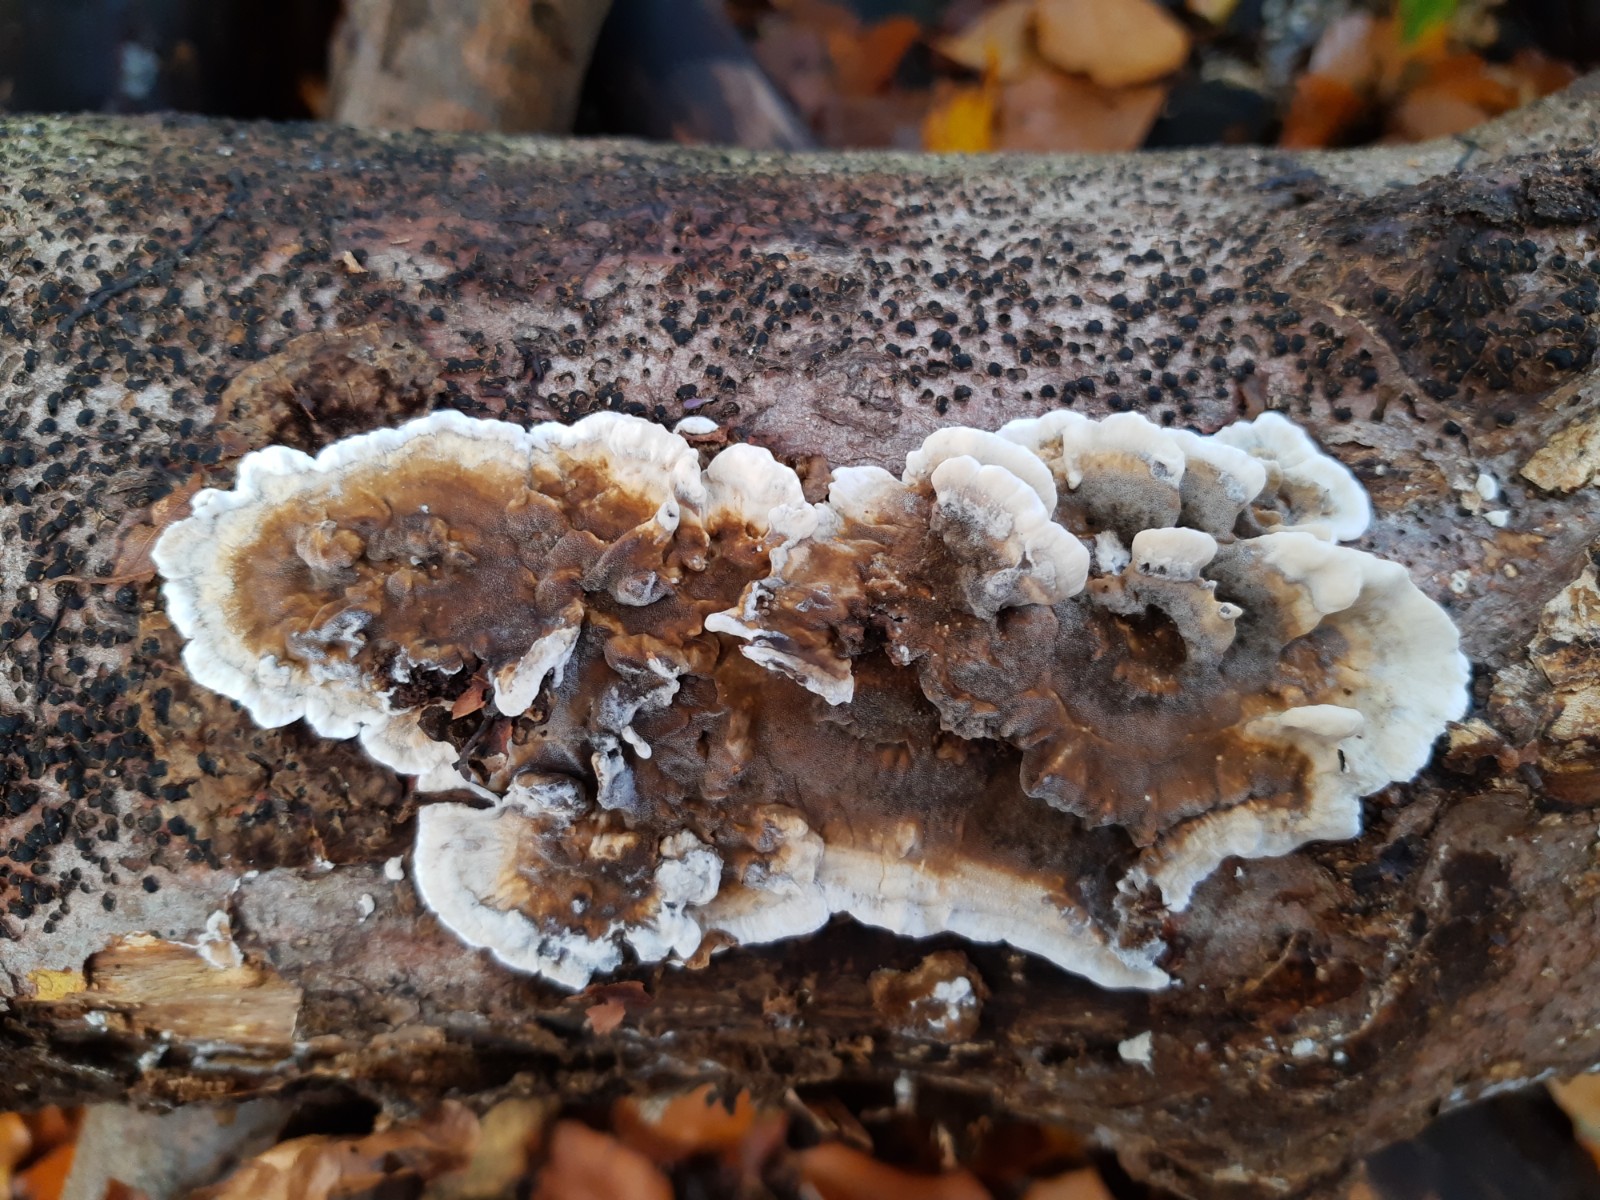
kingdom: Fungi
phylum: Basidiomycota
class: Agaricomycetes
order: Polyporales
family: Phanerochaetaceae
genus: Bjerkandera
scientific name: Bjerkandera adusta
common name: sveden sodporesvamp
